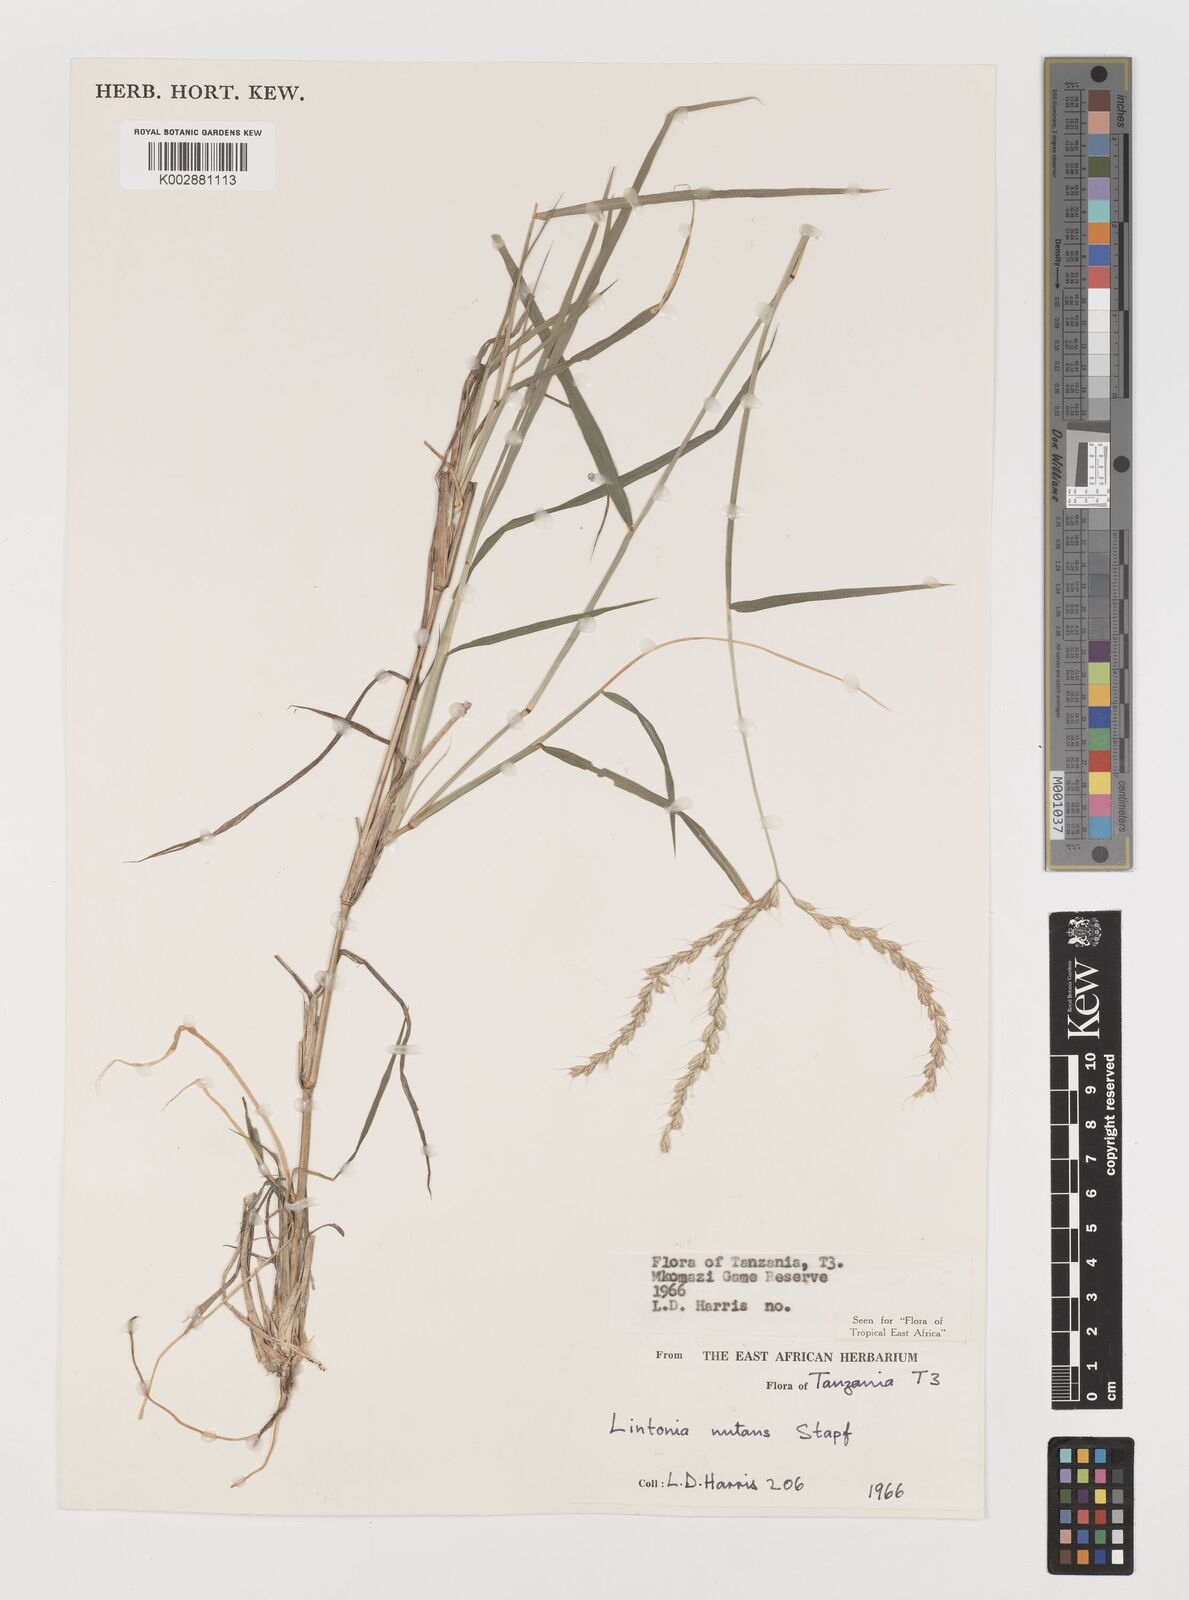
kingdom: Plantae
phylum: Tracheophyta
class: Liliopsida
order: Poales
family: Poaceae
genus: Chloris
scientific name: Chloris nutans
